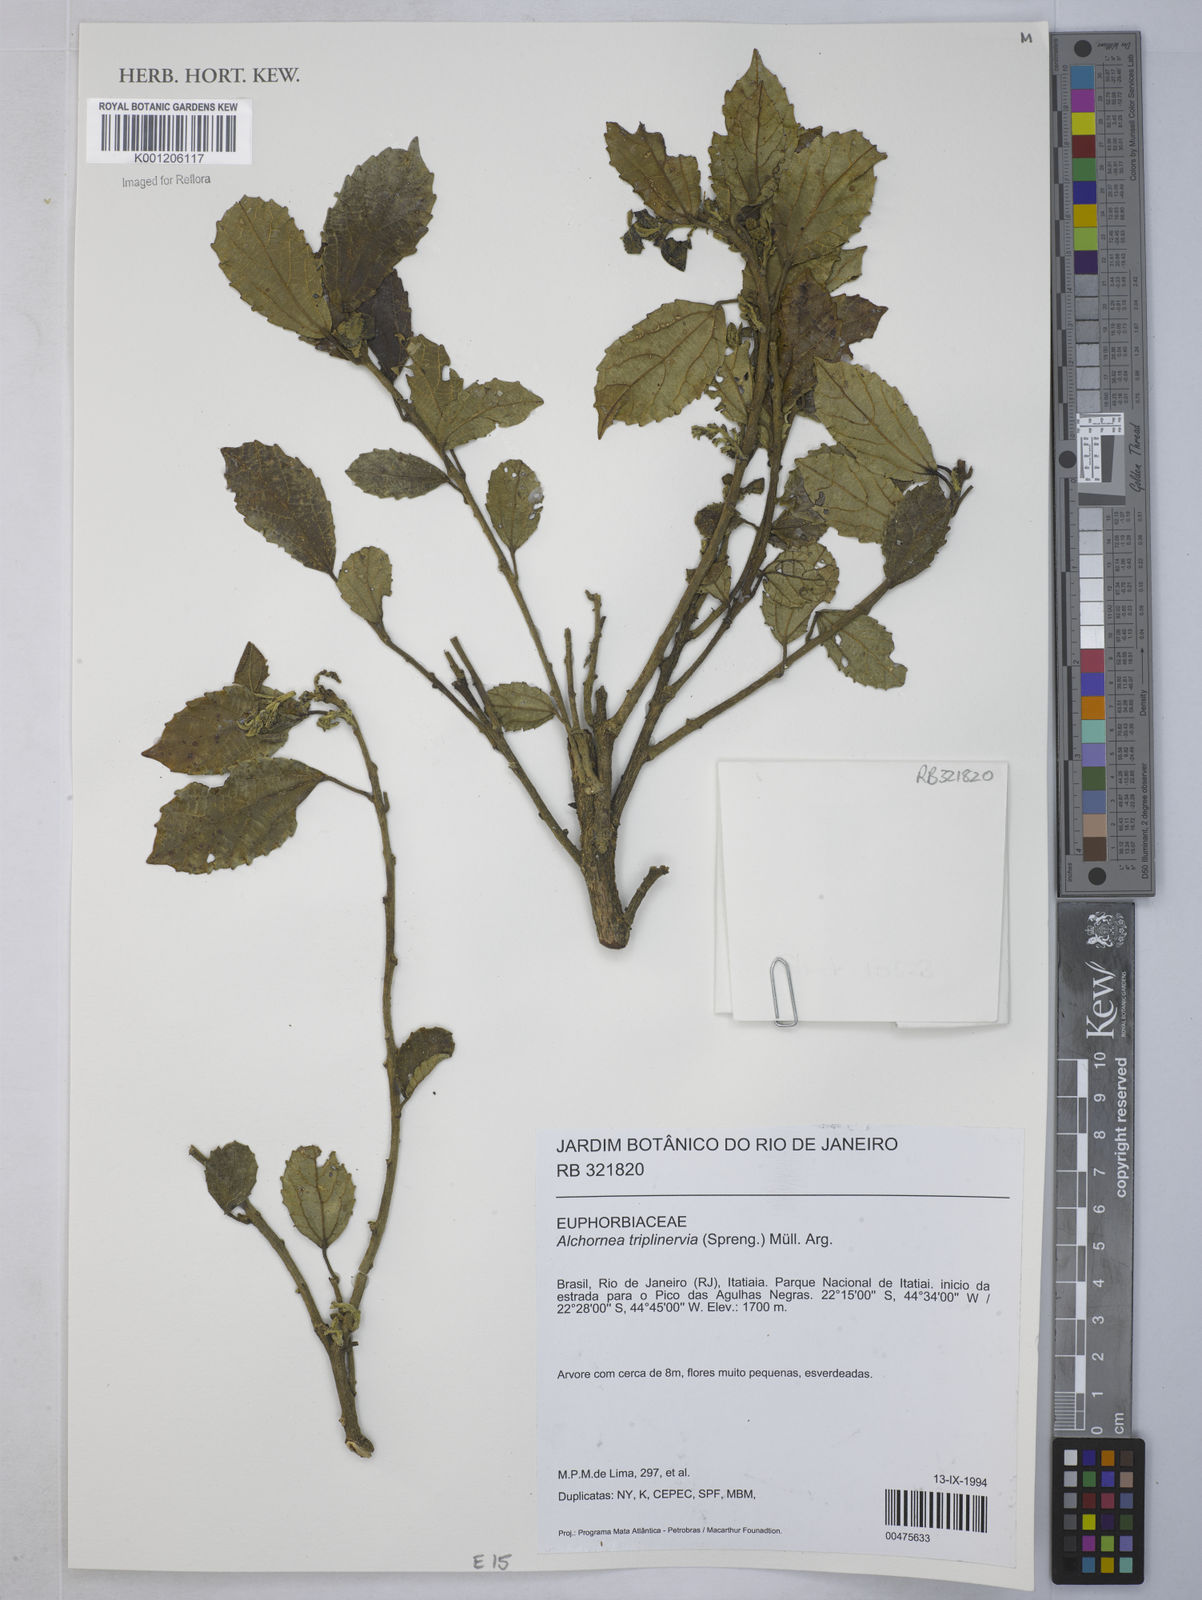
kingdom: Plantae
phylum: Tracheophyta
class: Magnoliopsida
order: Malpighiales
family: Euphorbiaceae
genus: Alchornea
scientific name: Alchornea
